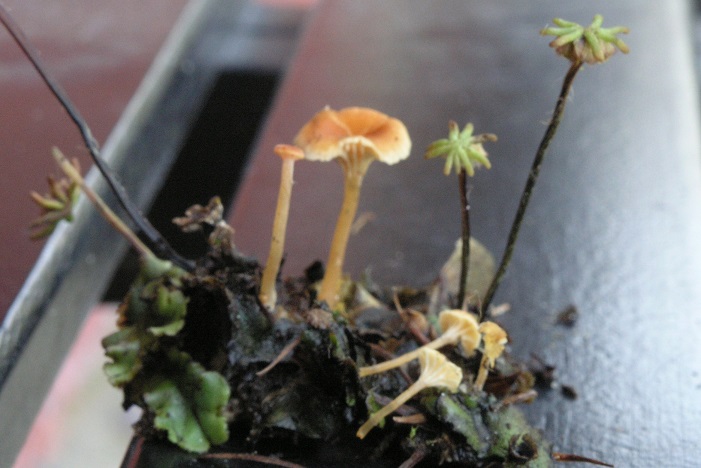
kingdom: Fungi
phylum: Basidiomycota
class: Agaricomycetes
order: Hymenochaetales
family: Rickenellaceae
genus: Loreleia
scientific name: Loreleia marchantiae
